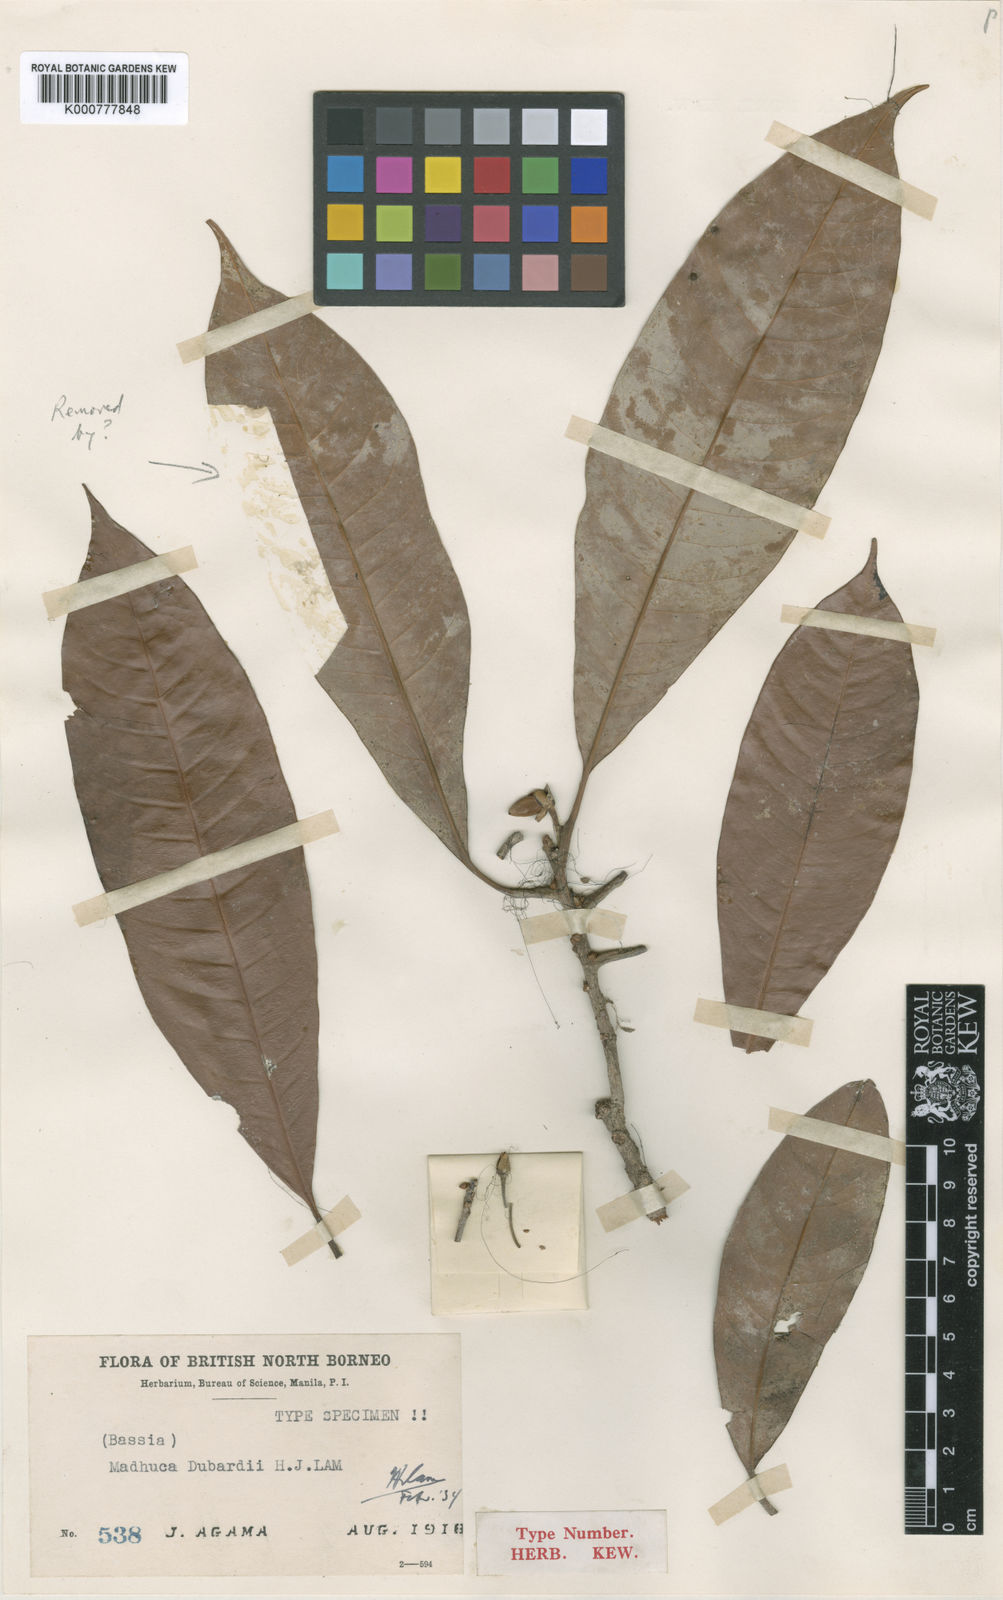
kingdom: Plantae
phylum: Tracheophyta
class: Magnoliopsida
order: Ericales
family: Sapotaceae
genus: Madhuca
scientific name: Madhuca dubardii
